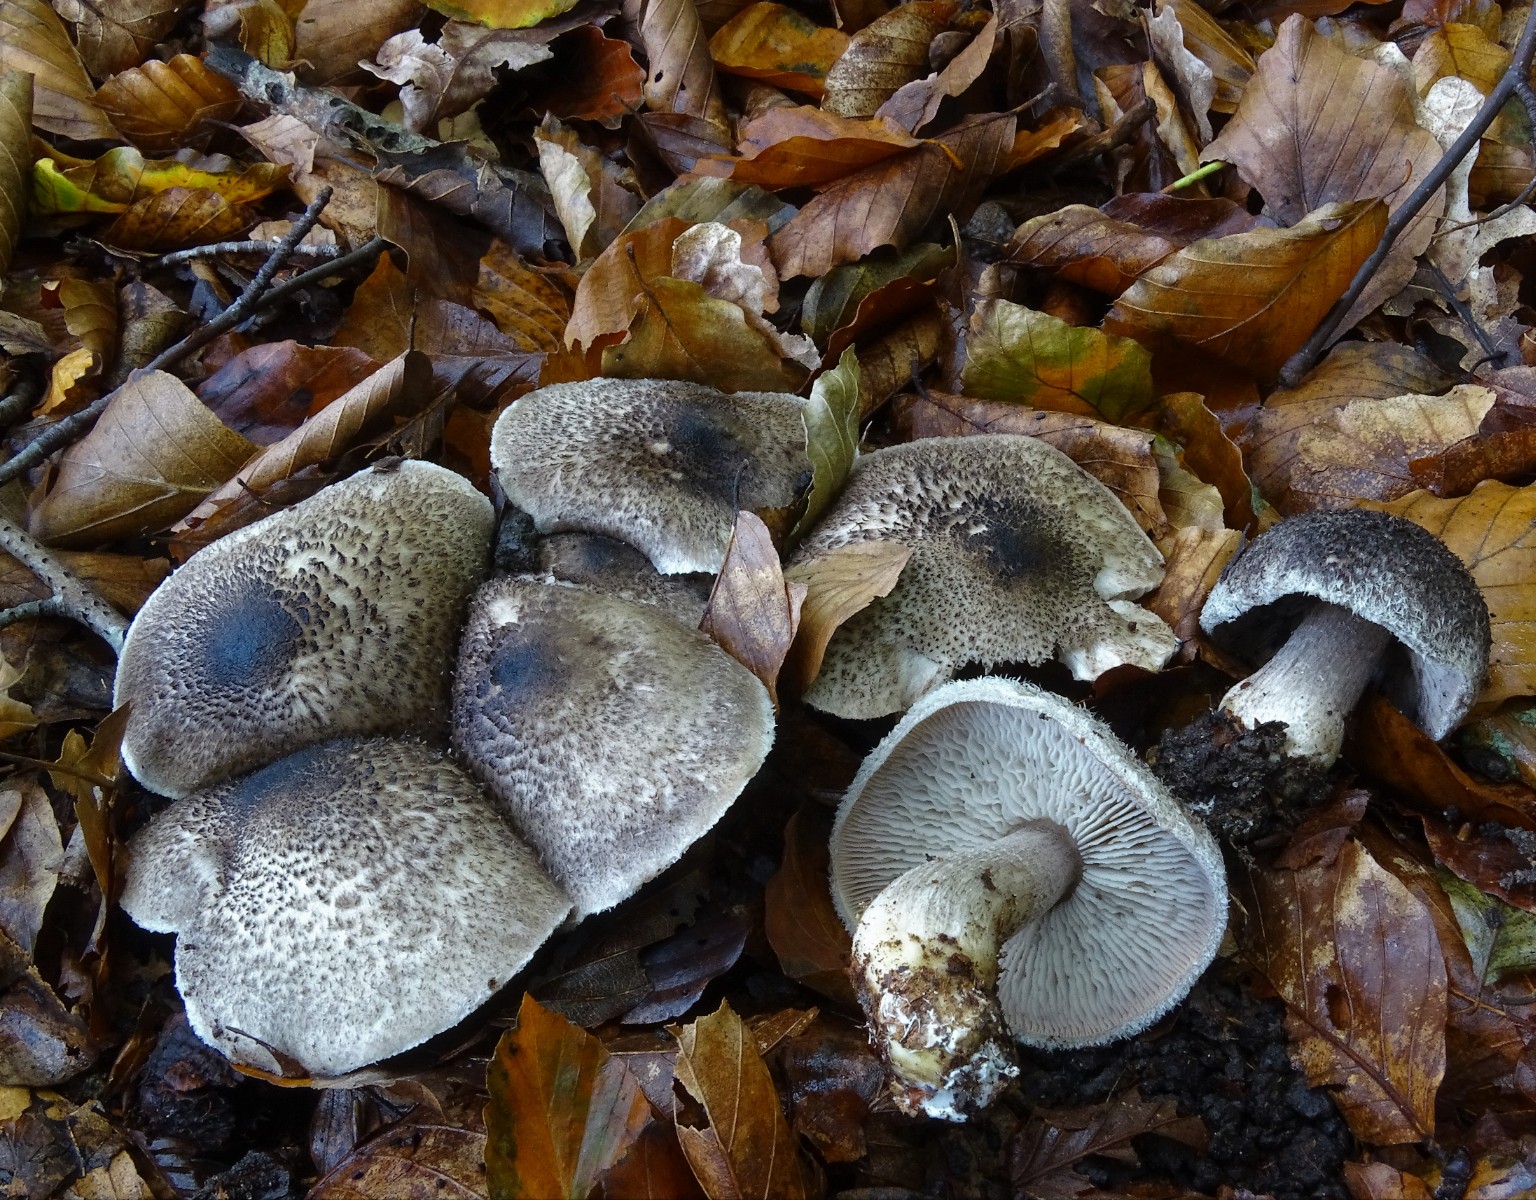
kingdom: Fungi
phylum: Basidiomycota
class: Agaricomycetes
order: Agaricales
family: Tricholomataceae
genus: Tricholoma
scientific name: Tricholoma atrosquamosum
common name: sortskællet ridderhat
